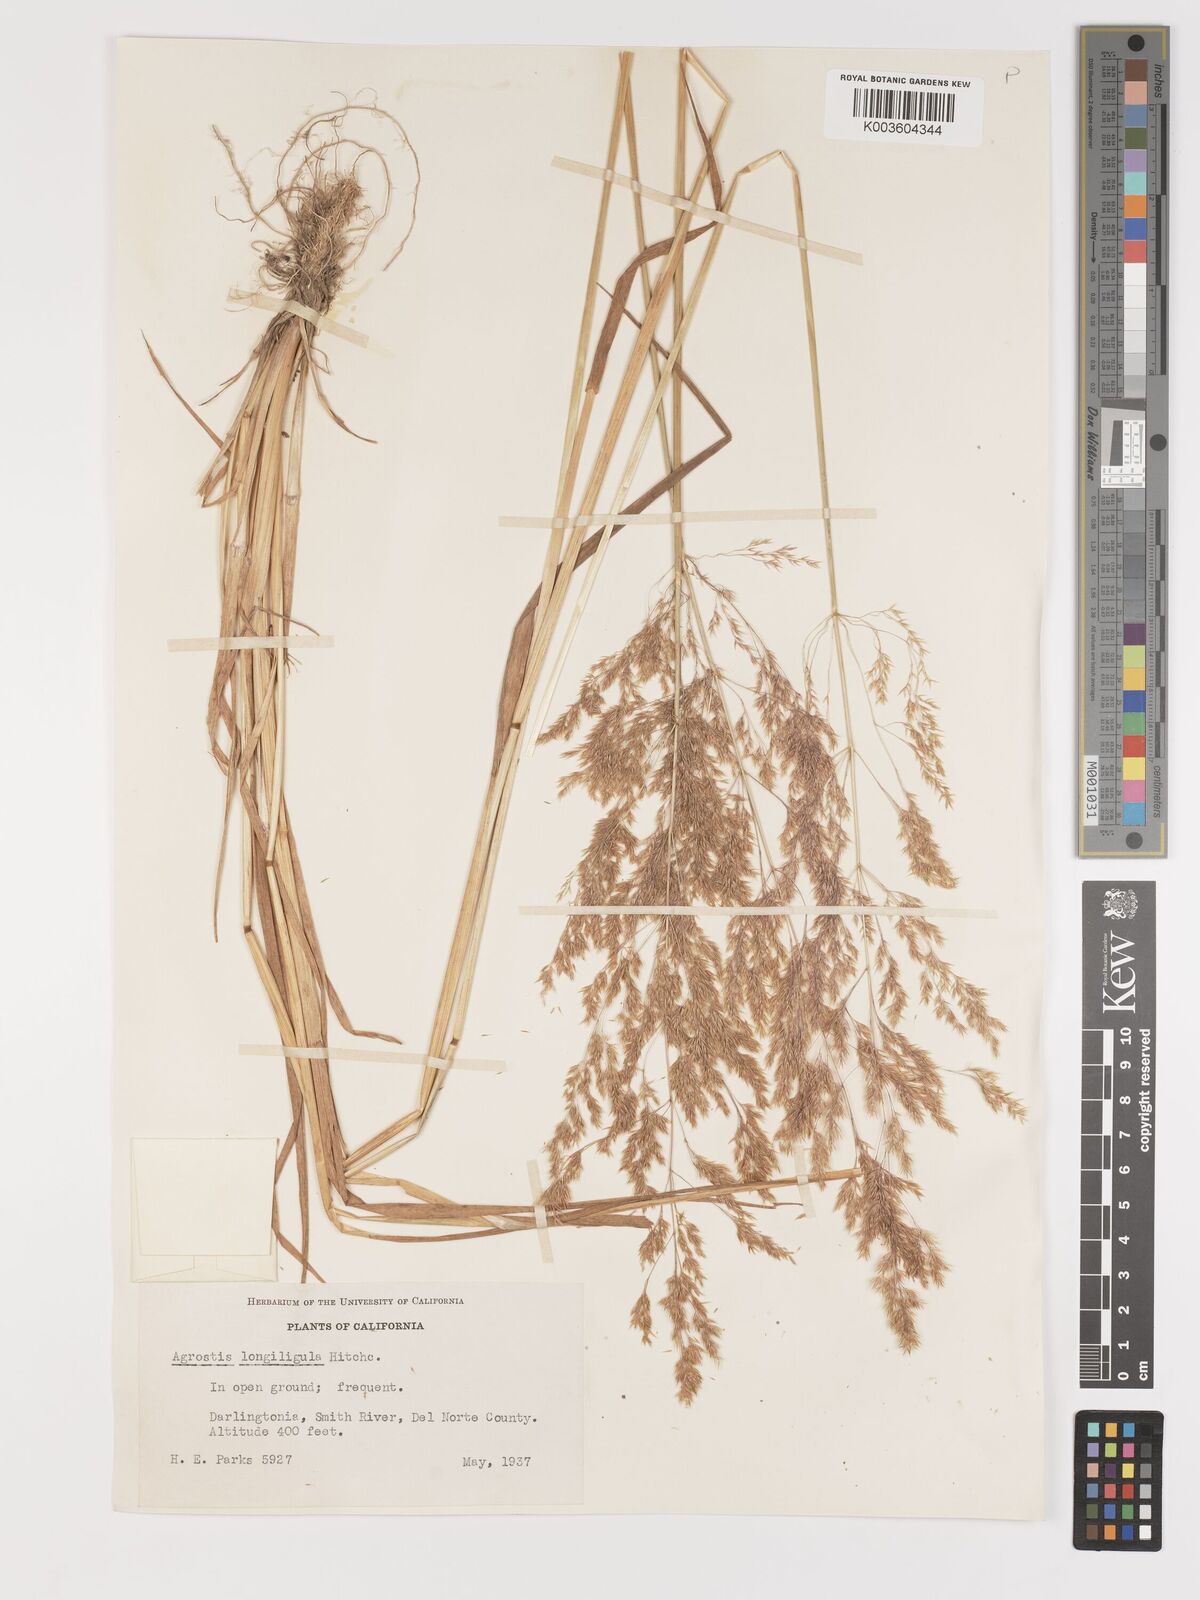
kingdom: Plantae
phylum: Tracheophyta
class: Liliopsida
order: Poales
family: Poaceae
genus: Agrostis
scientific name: Agrostis exarata
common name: Spike bent
